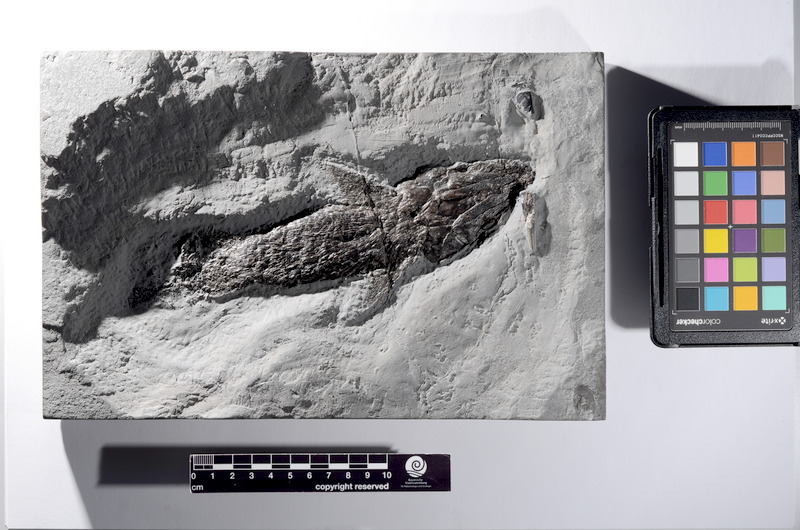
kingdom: Animalia
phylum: Chordata
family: Ptycholepididae
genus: Ptycholepis
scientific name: Ptycholepis bollensis
